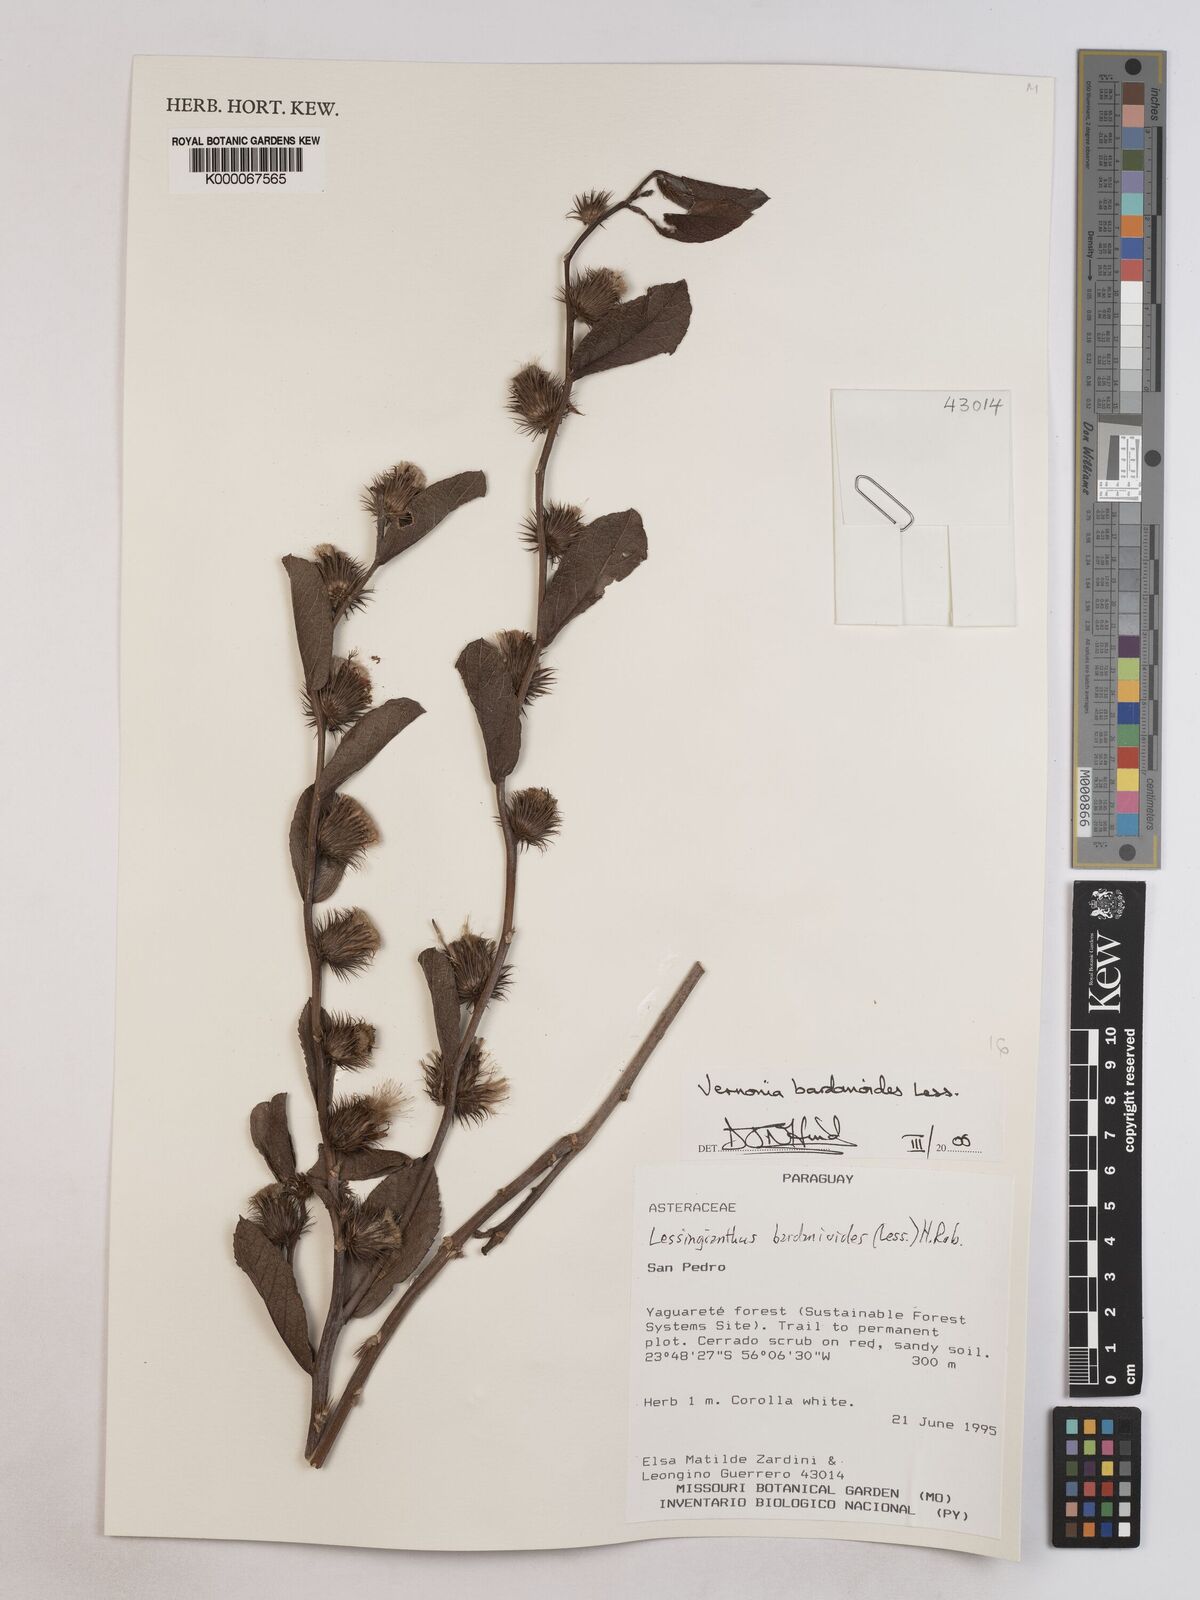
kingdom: Plantae
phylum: Tracheophyta
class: Magnoliopsida
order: Asterales
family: Asteraceae
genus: Lessingianthus
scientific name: Lessingianthus bardanioides
